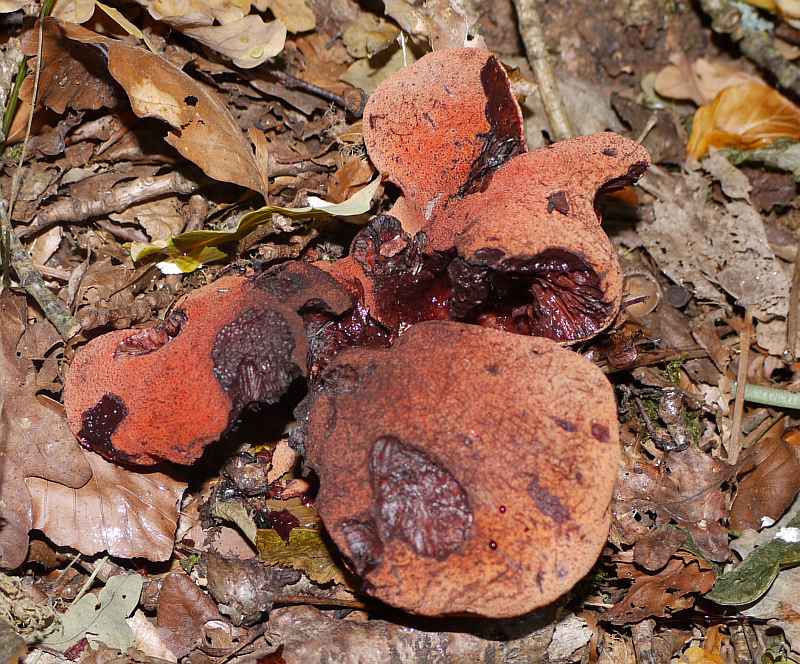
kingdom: Fungi
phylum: Basidiomycota
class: Agaricomycetes
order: Agaricales
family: Fistulinaceae
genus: Fistulina
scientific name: Fistulina hepatica
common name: oksetunge
